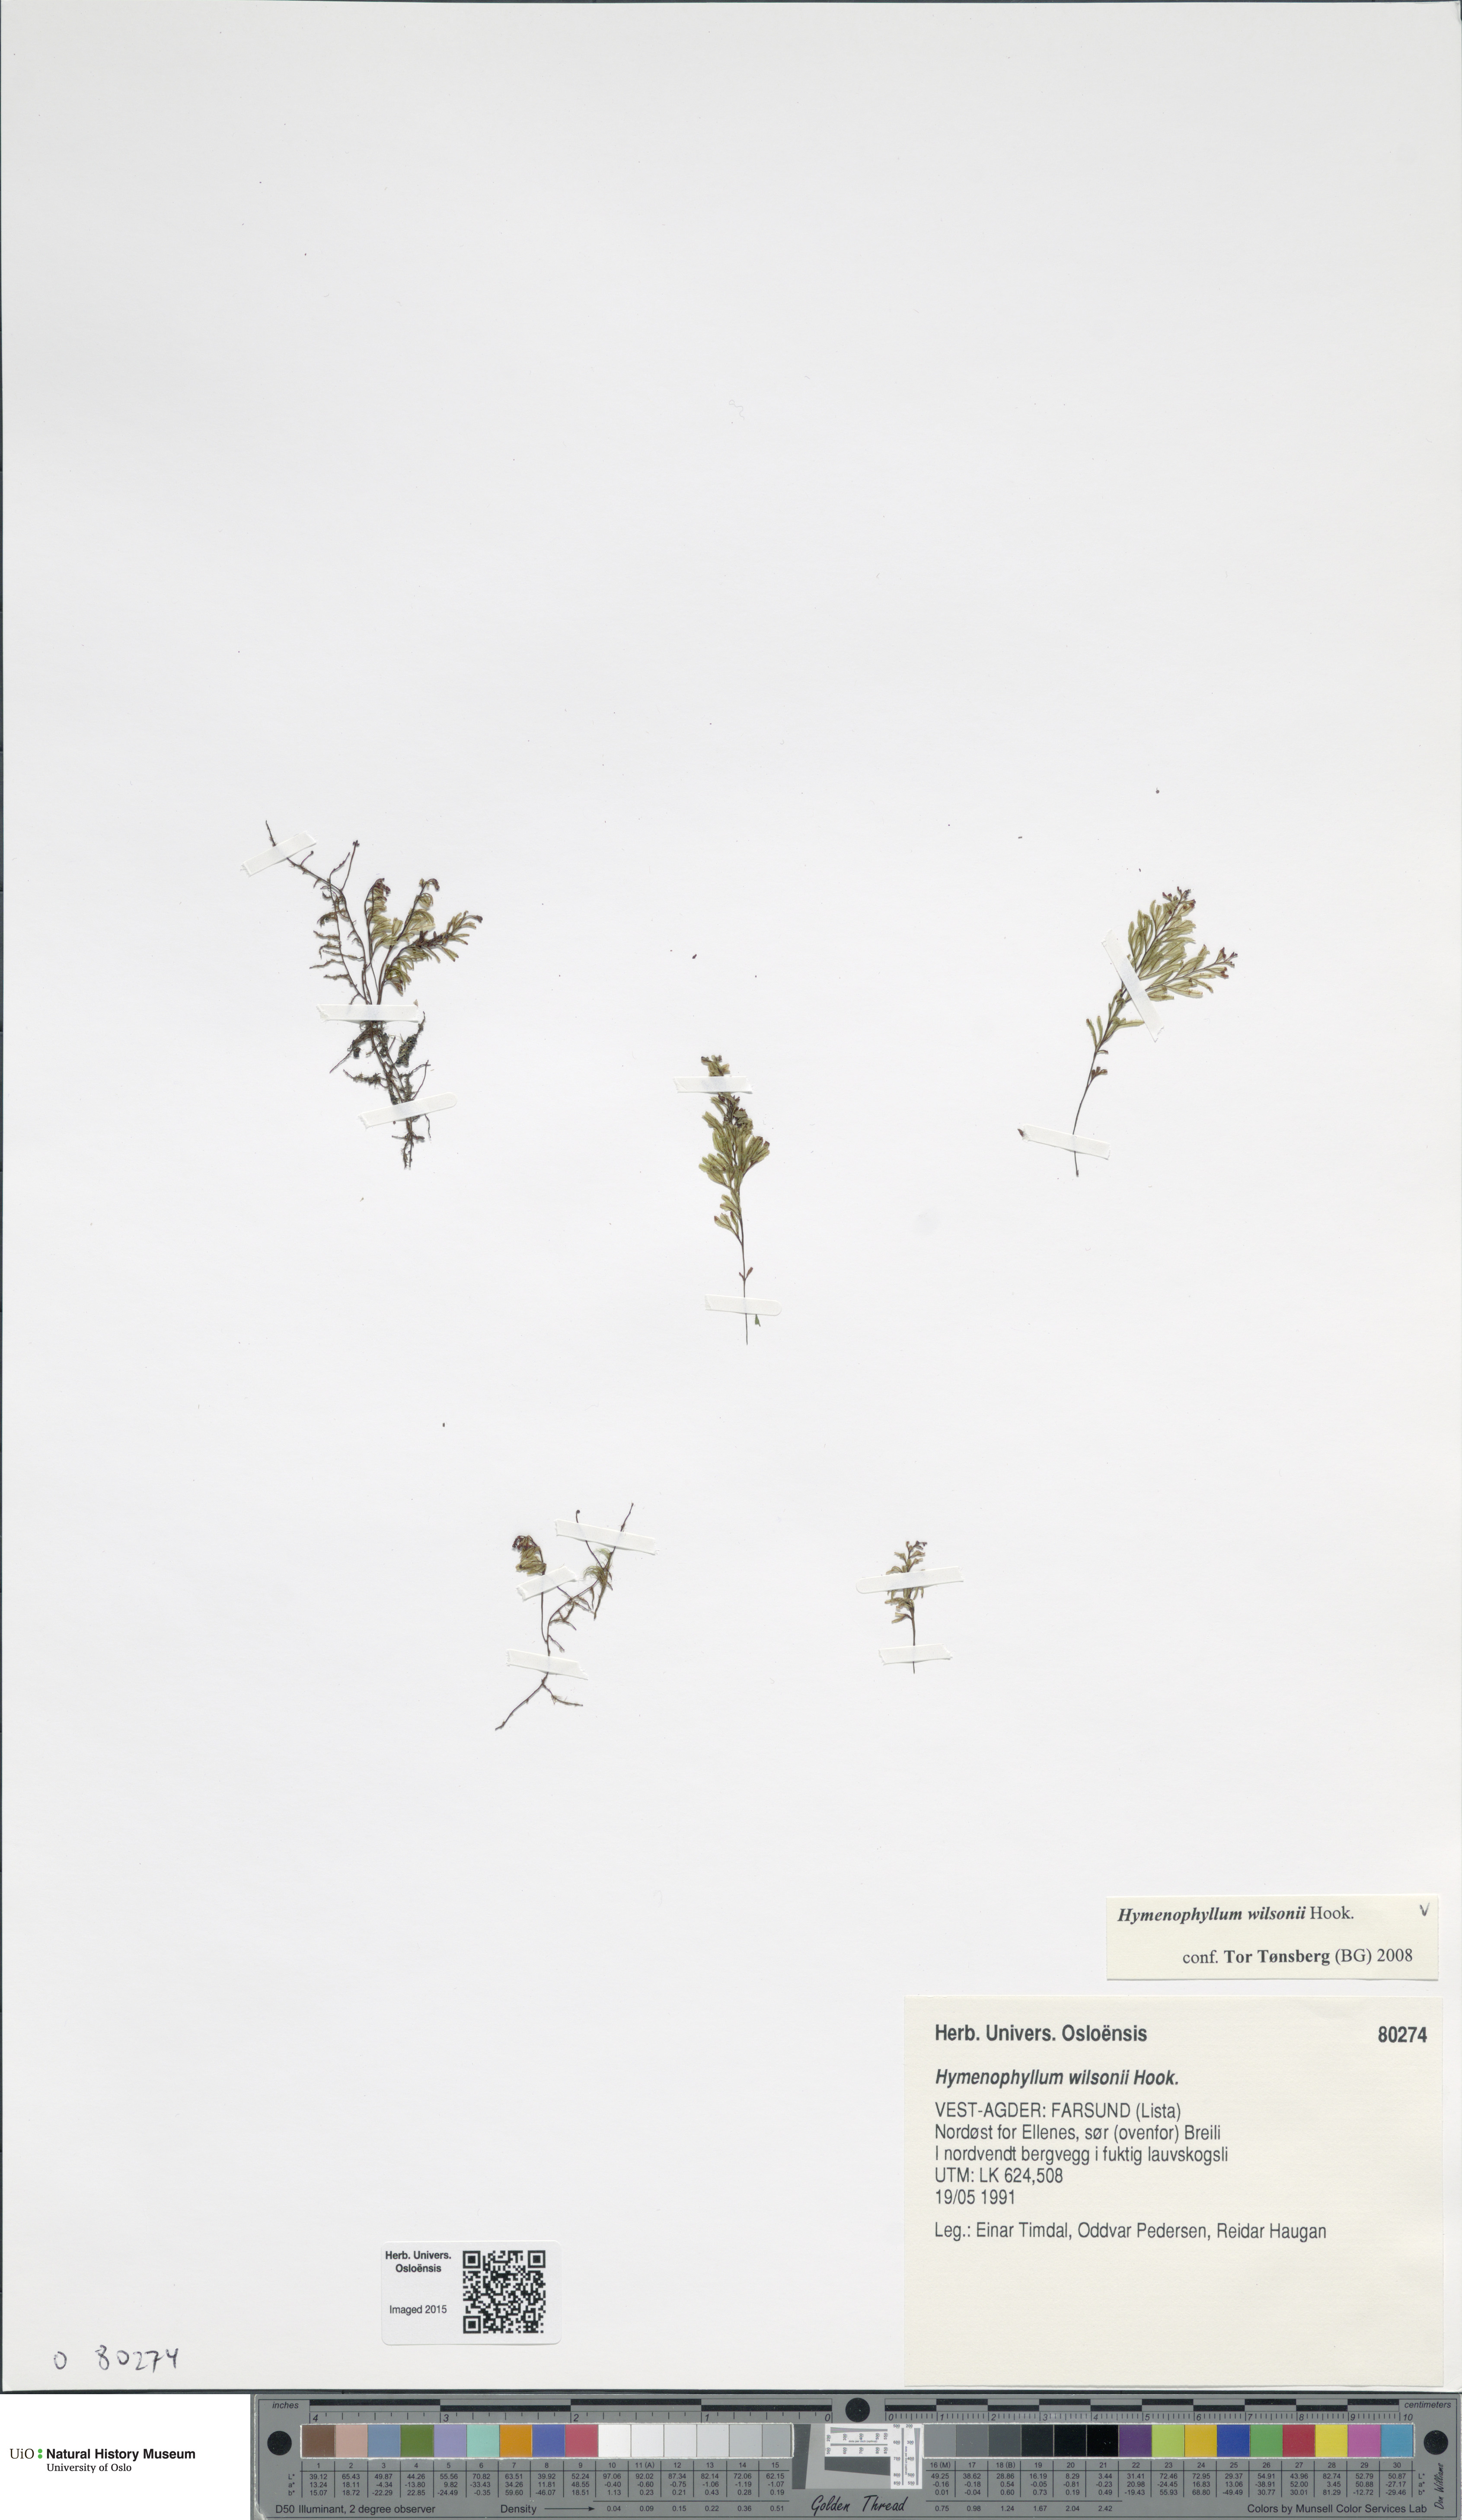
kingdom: Plantae
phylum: Tracheophyta
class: Polypodiopsida
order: Hymenophyllales
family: Hymenophyllaceae
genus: Hymenophyllum
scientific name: Hymenophyllum peltatum
